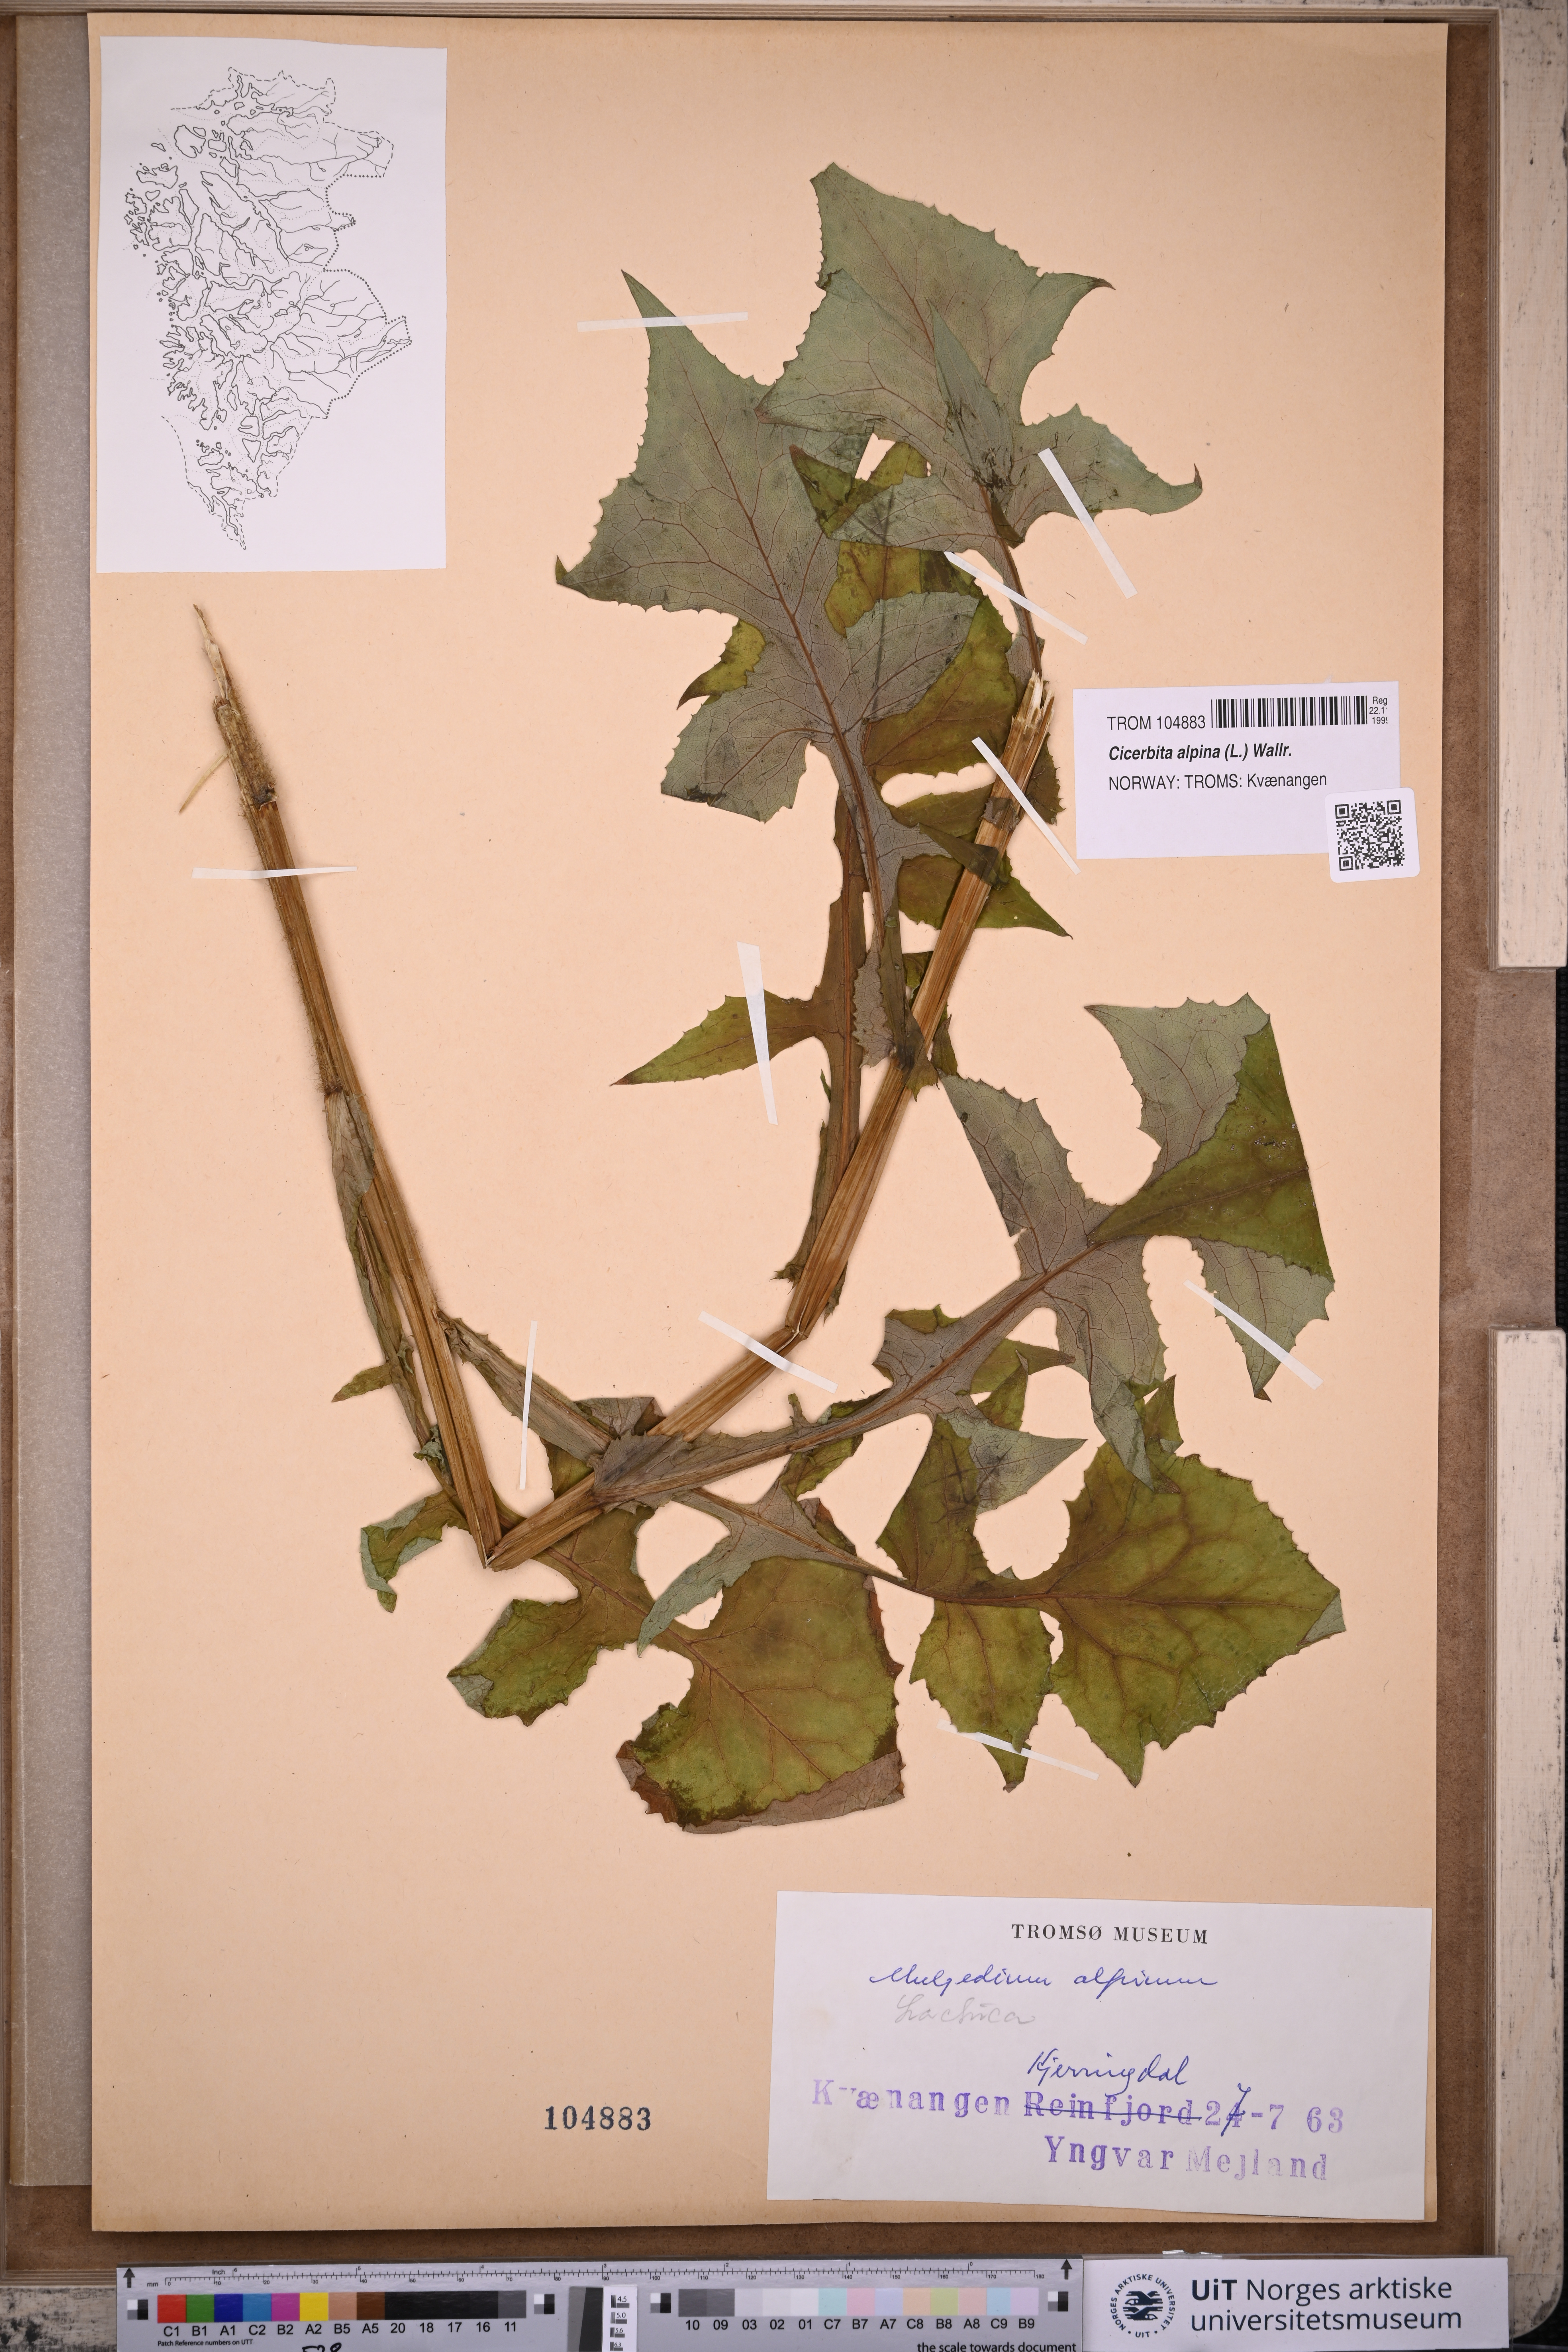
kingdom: Plantae
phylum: Tracheophyta
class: Magnoliopsida
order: Asterales
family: Asteraceae
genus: Cicerbita
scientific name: Cicerbita alpina
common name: Alpine blue-sow-thistle
